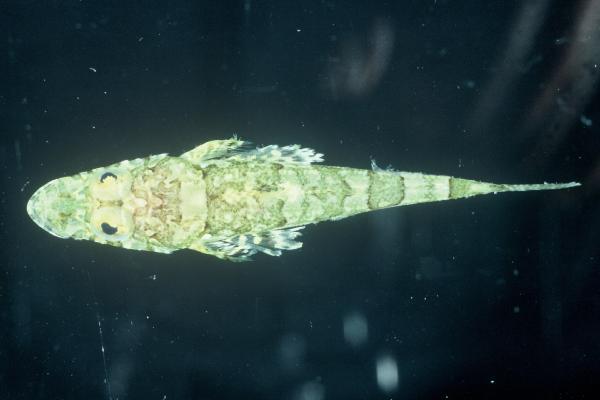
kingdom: Animalia
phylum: Chordata
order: Scorpaeniformes
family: Platycephalidae
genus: Thysanophrys
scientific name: Thysanophrys celebica
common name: Celebes flathead
